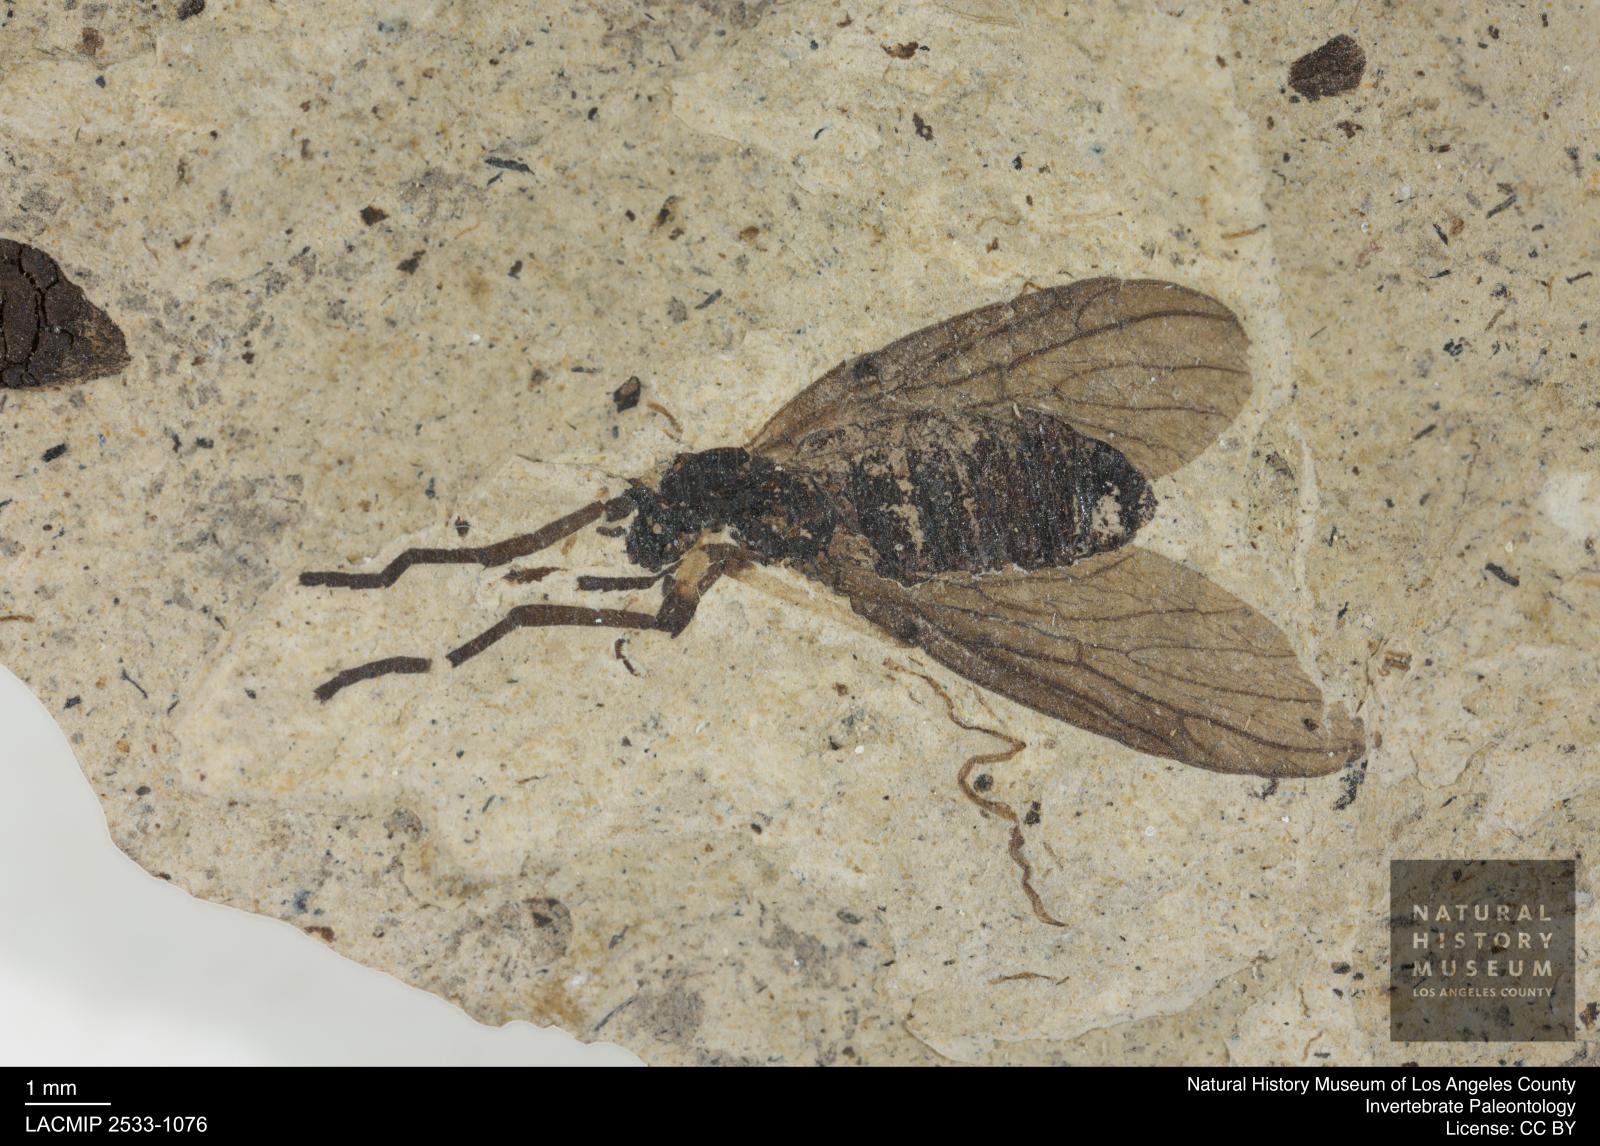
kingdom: Animalia
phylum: Arthropoda
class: Insecta
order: Diptera
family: Bibionidae
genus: Plecia
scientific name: Plecia pinguis
